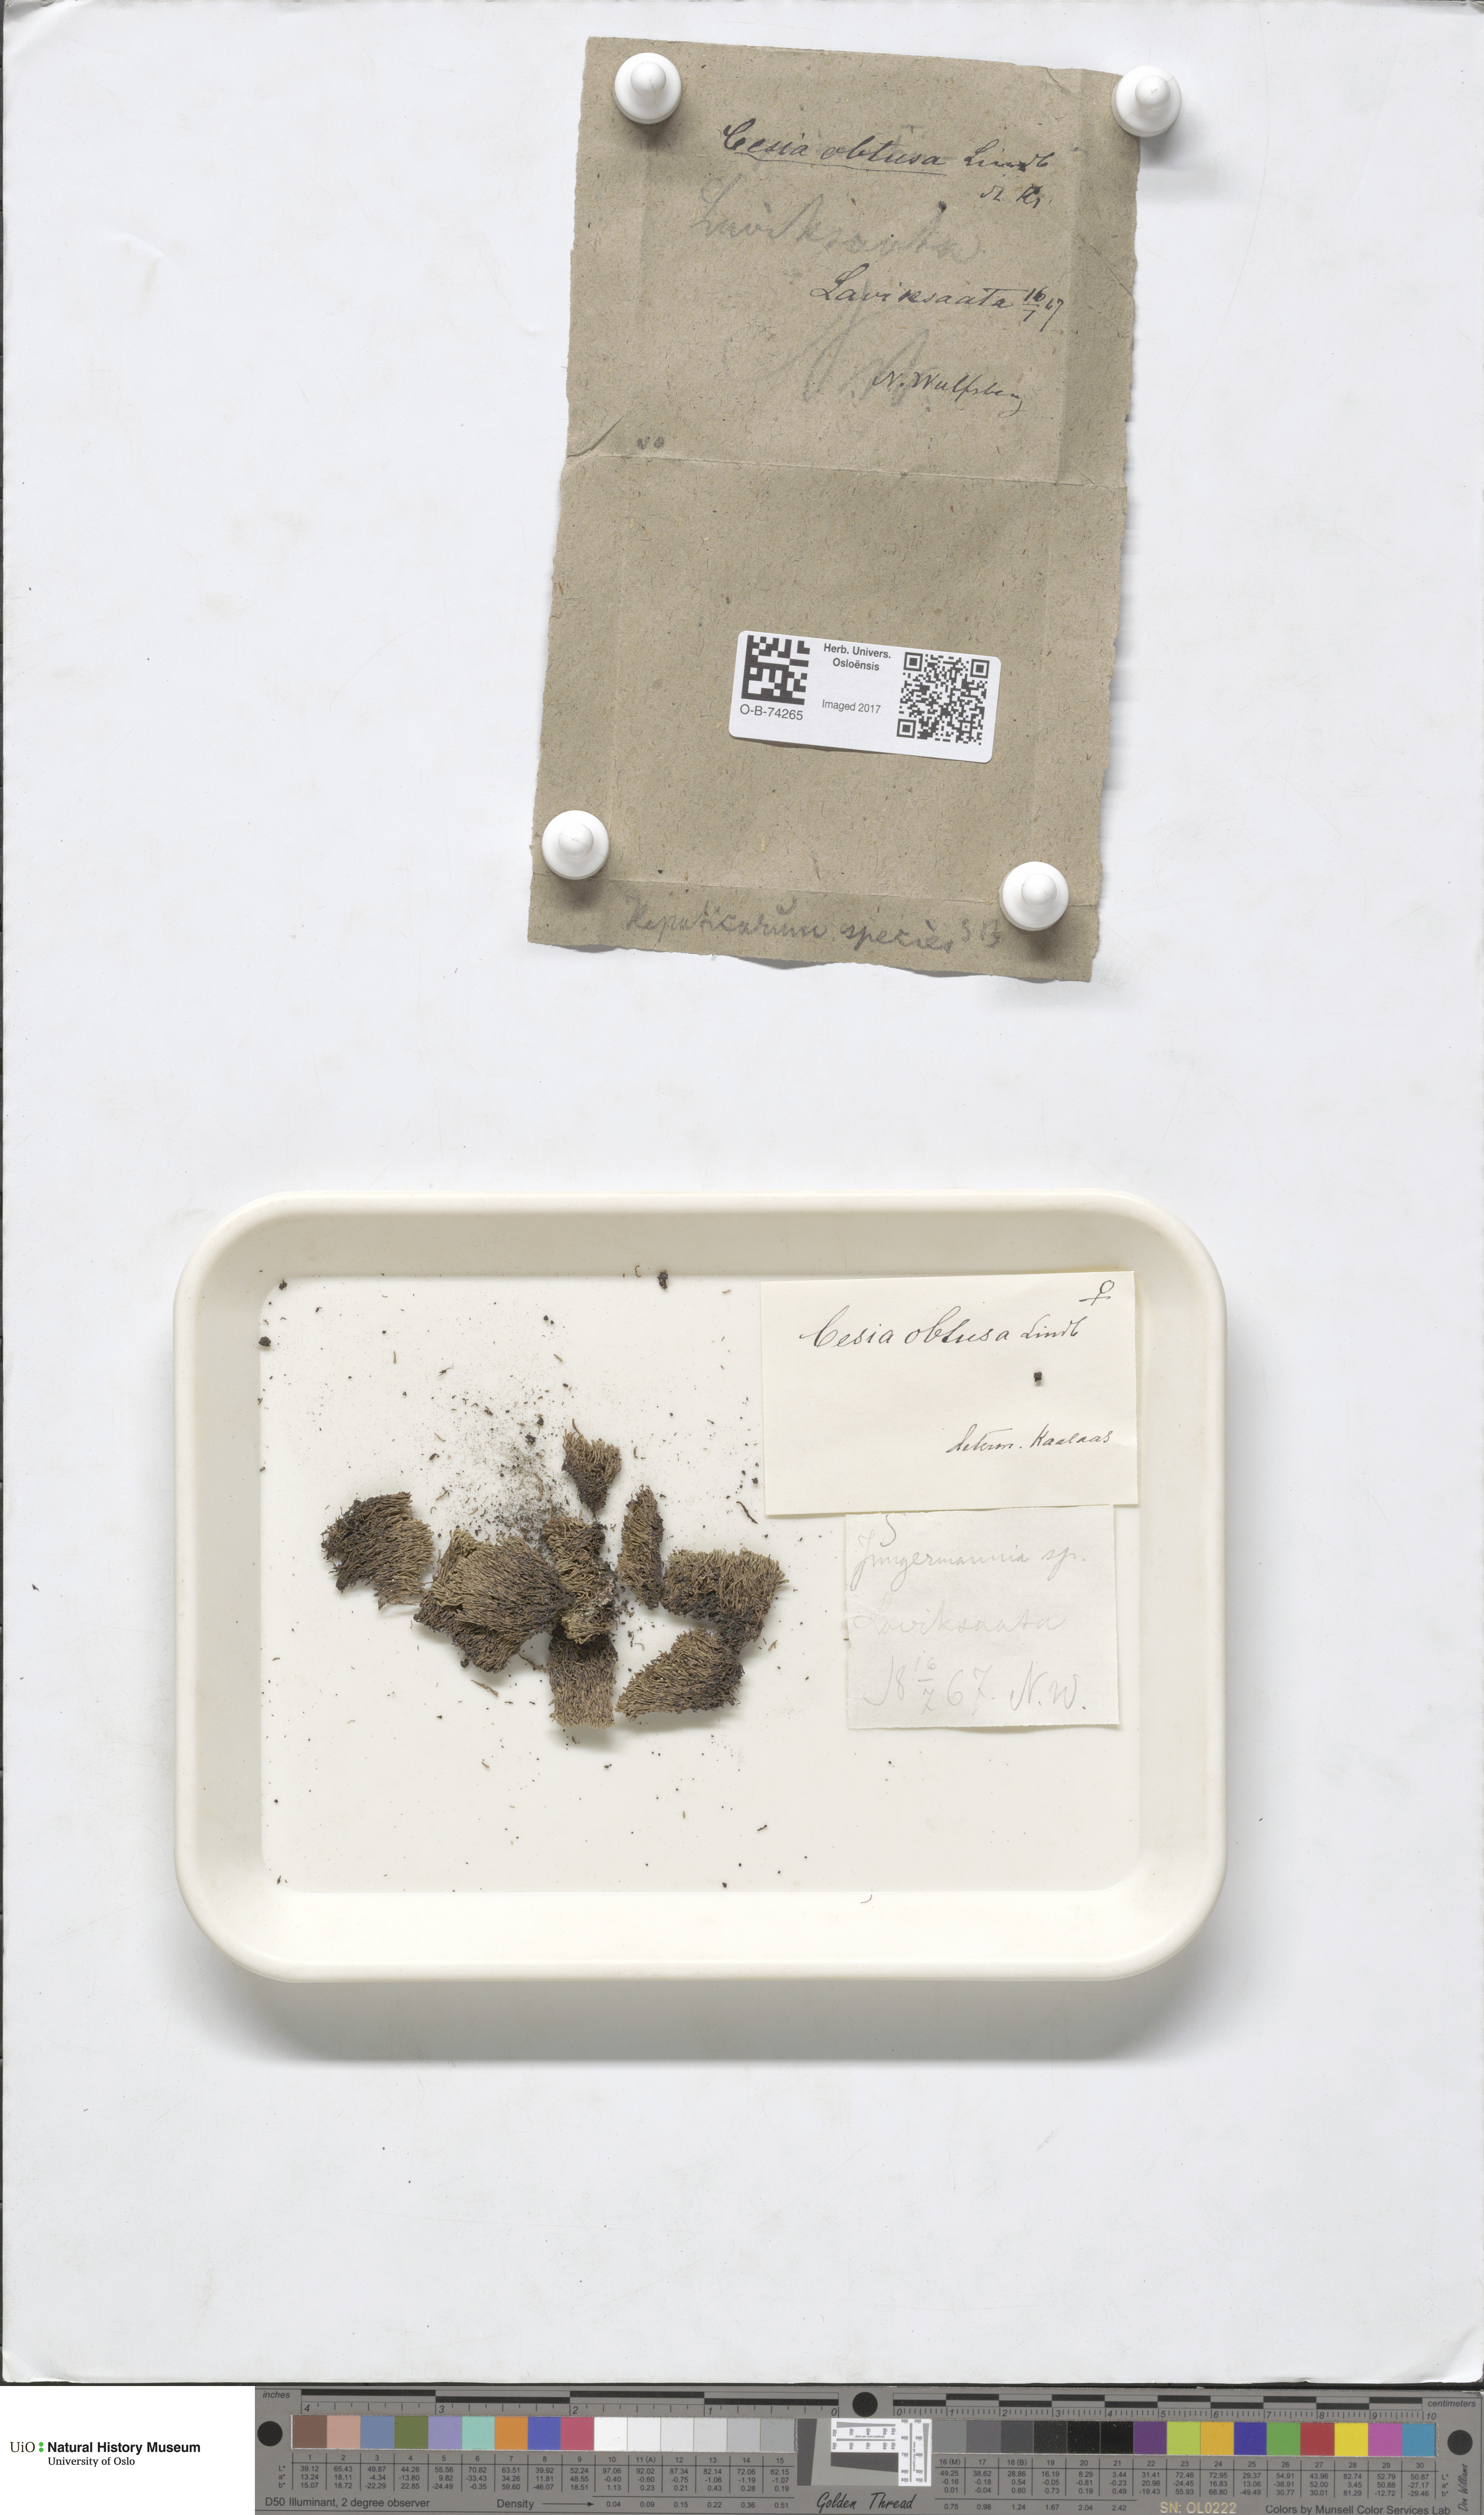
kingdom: Plantae
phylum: Marchantiophyta
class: Jungermanniopsida
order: Jungermanniales
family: Gymnomitriaceae
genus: Gymnomitrion
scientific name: Gymnomitrion obtusum
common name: White frostwort
